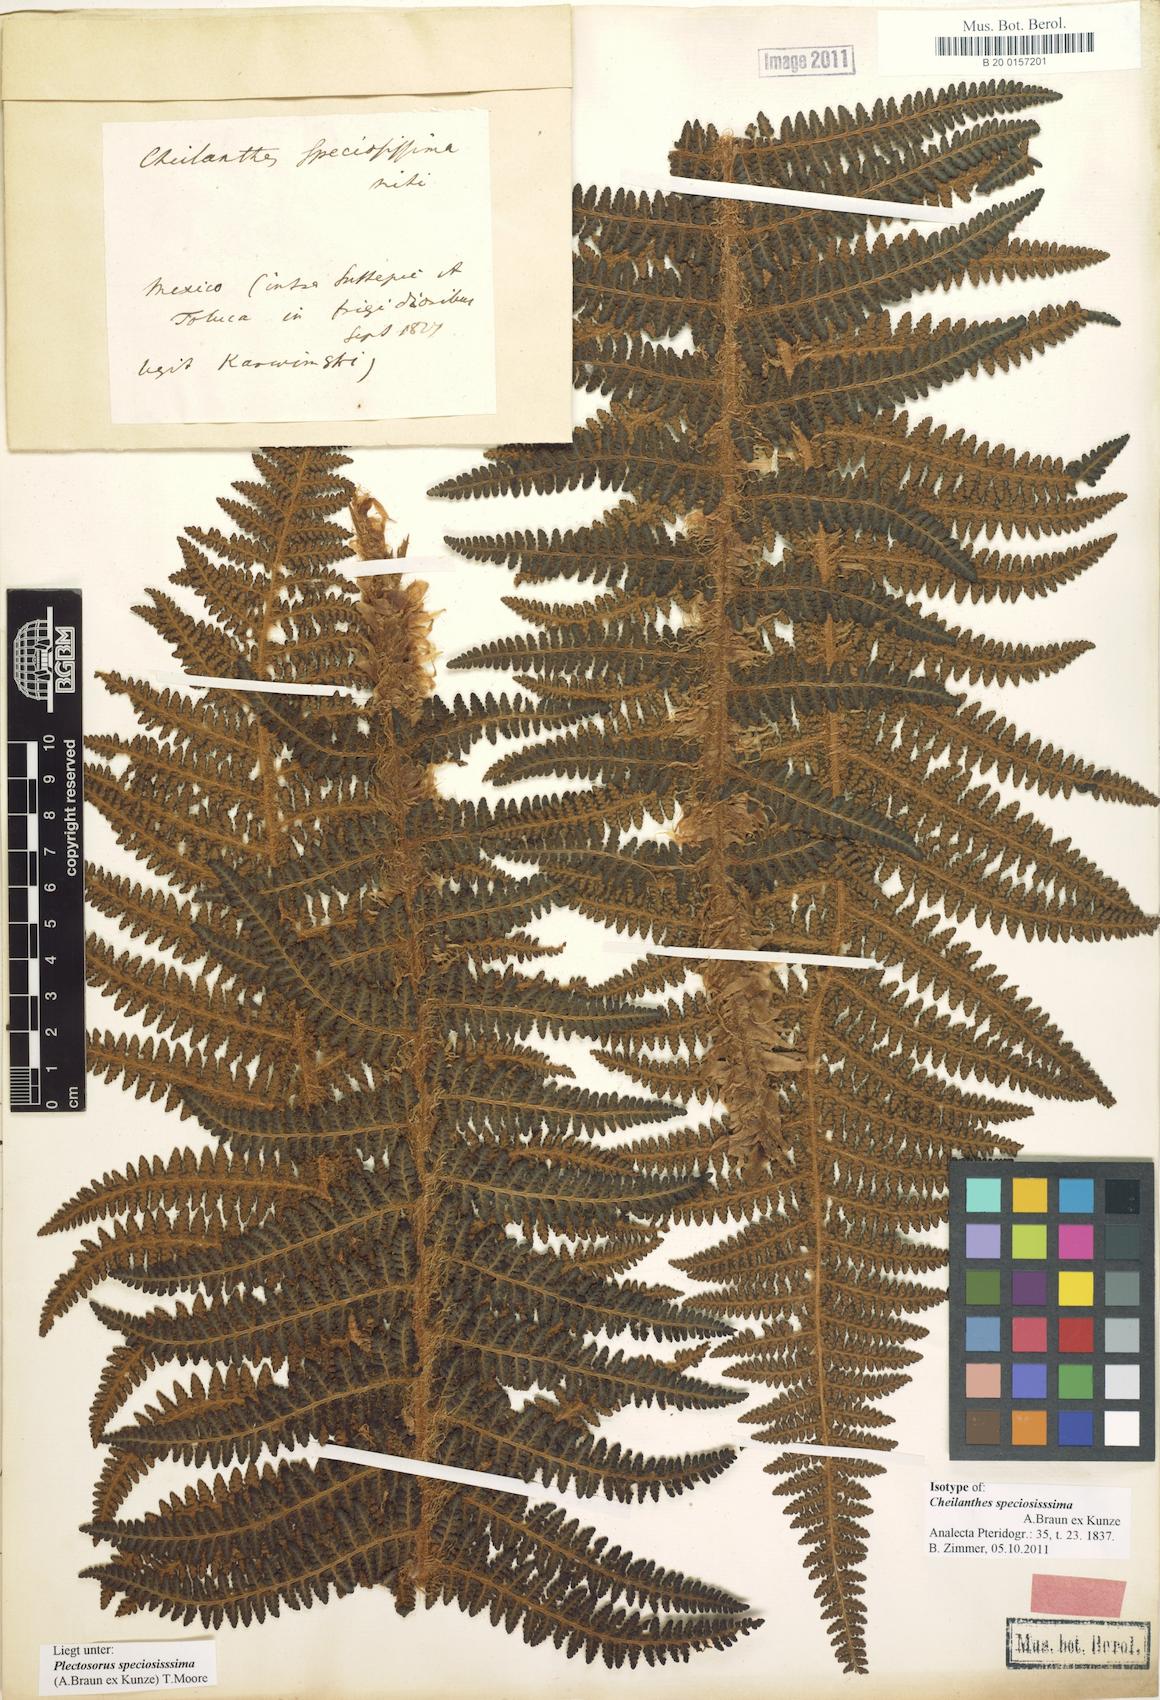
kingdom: Plantae
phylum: Tracheophyta
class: Polypodiopsida
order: Polypodiales
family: Dryopteridaceae
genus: Polystichum
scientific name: Polystichum speciosissimum
